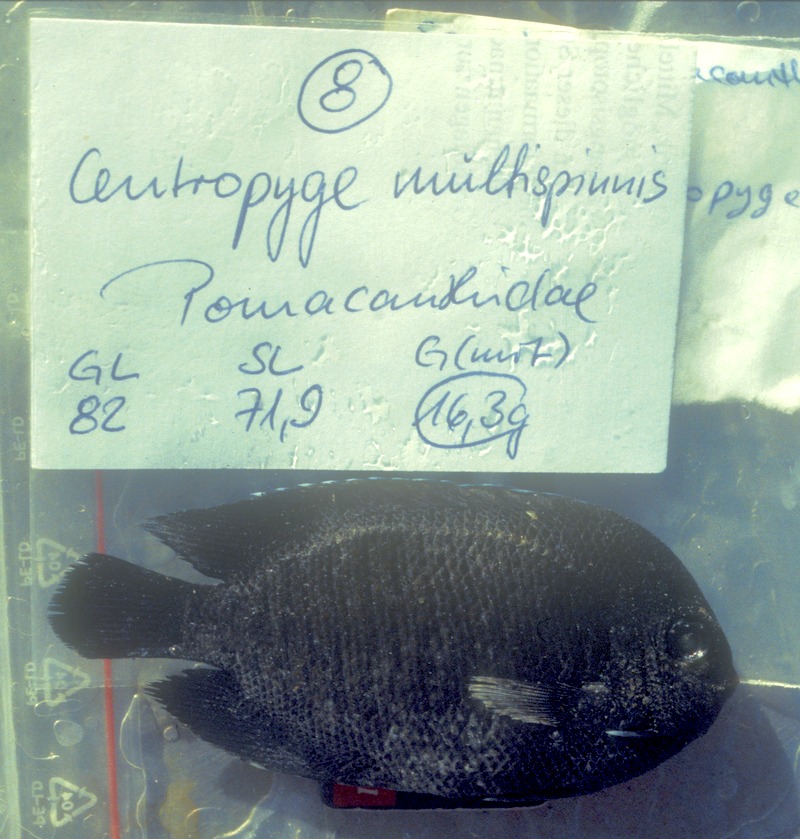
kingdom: Animalia
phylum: Chordata
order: Perciformes
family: Pomacanthidae
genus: Centropyge
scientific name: Centropyge multispinis
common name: Many-spined angelfish
